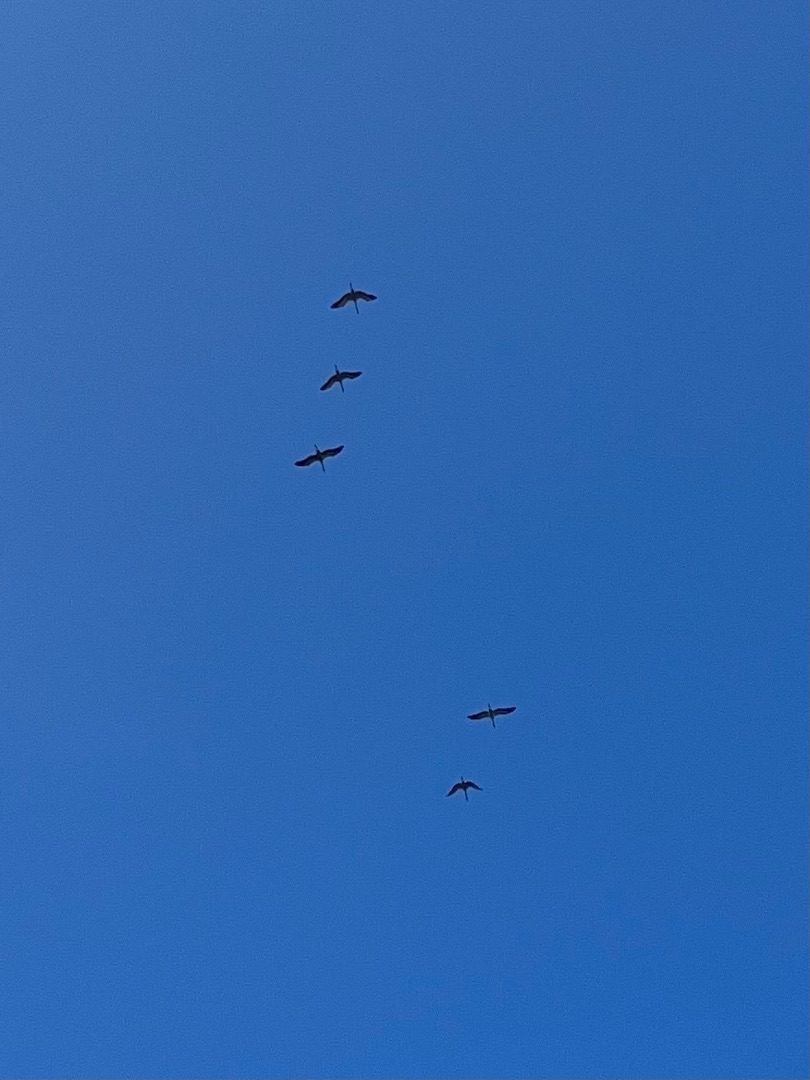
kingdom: Animalia
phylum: Chordata
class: Aves
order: Gruiformes
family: Gruidae
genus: Grus
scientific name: Grus grus
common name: Trane
